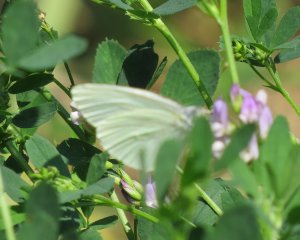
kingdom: Animalia
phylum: Arthropoda
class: Insecta
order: Lepidoptera
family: Pieridae
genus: Pieris
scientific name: Pieris oleracea
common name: Mustard White
